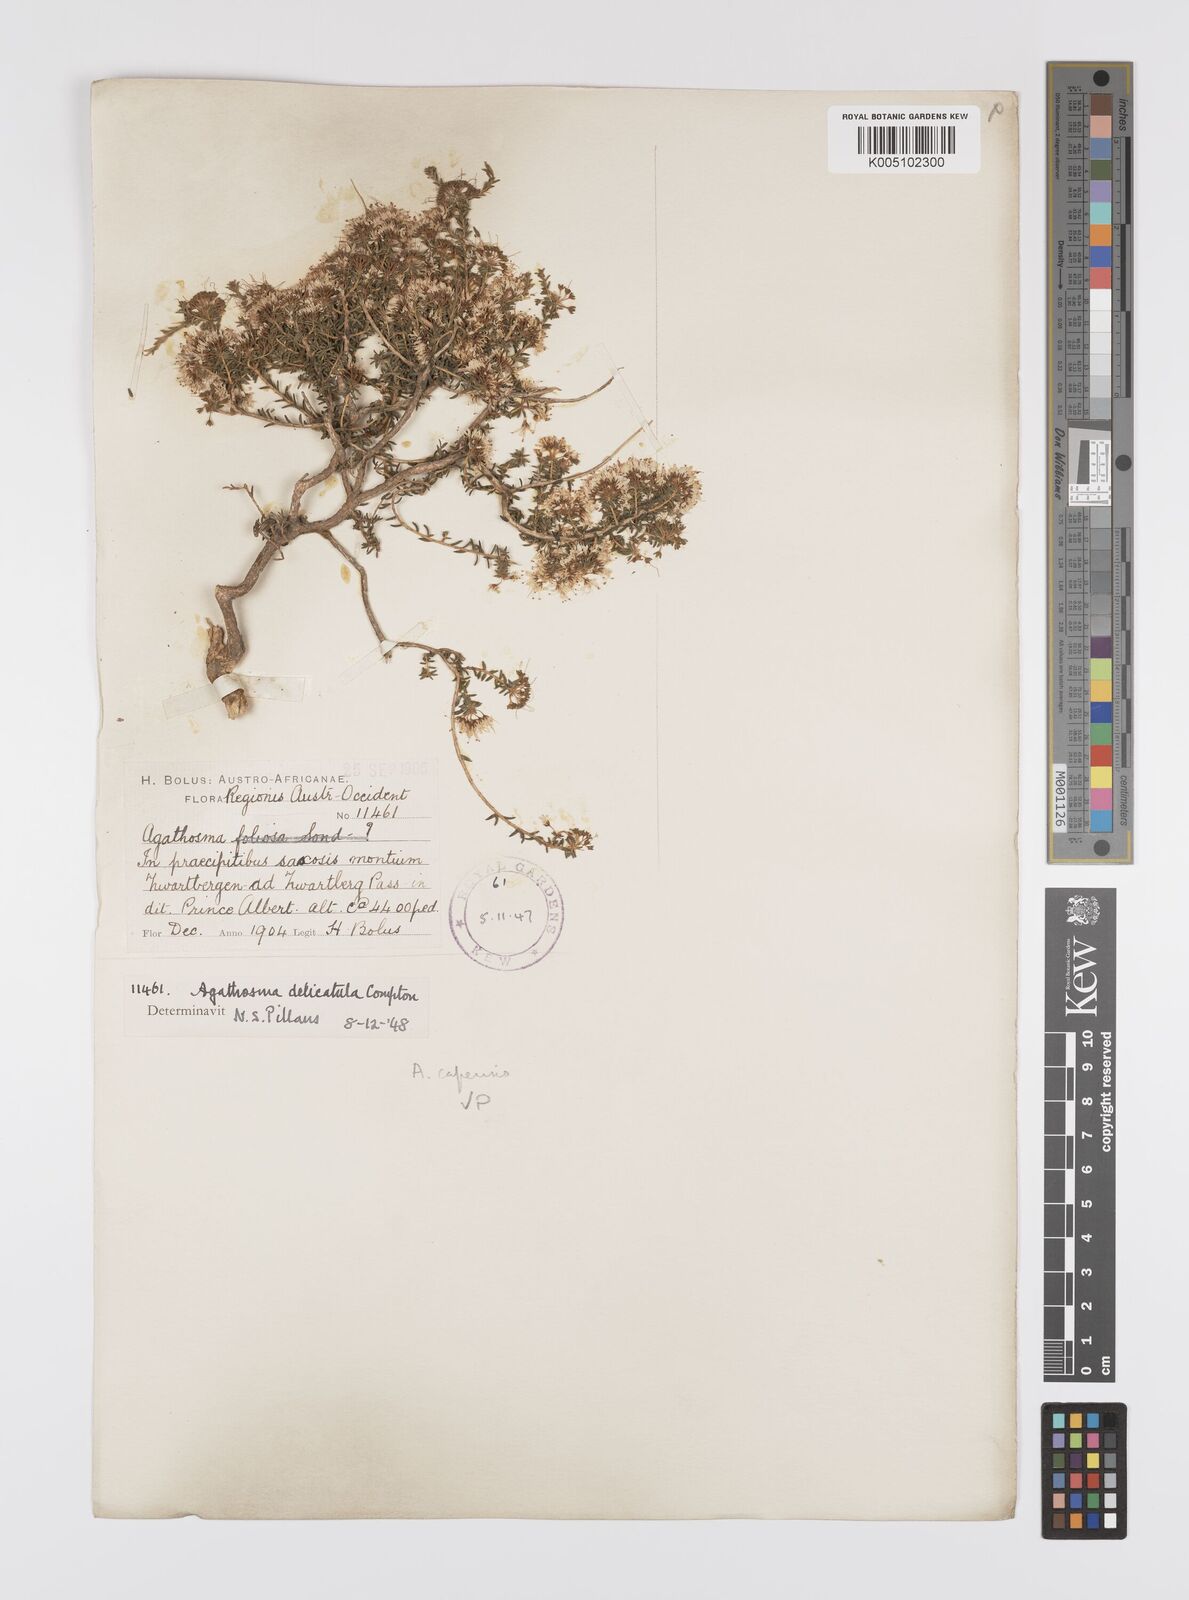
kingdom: Plantae
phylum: Tracheophyta
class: Magnoliopsida
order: Sapindales
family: Rutaceae
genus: Agathosma
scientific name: Agathosma capensis
